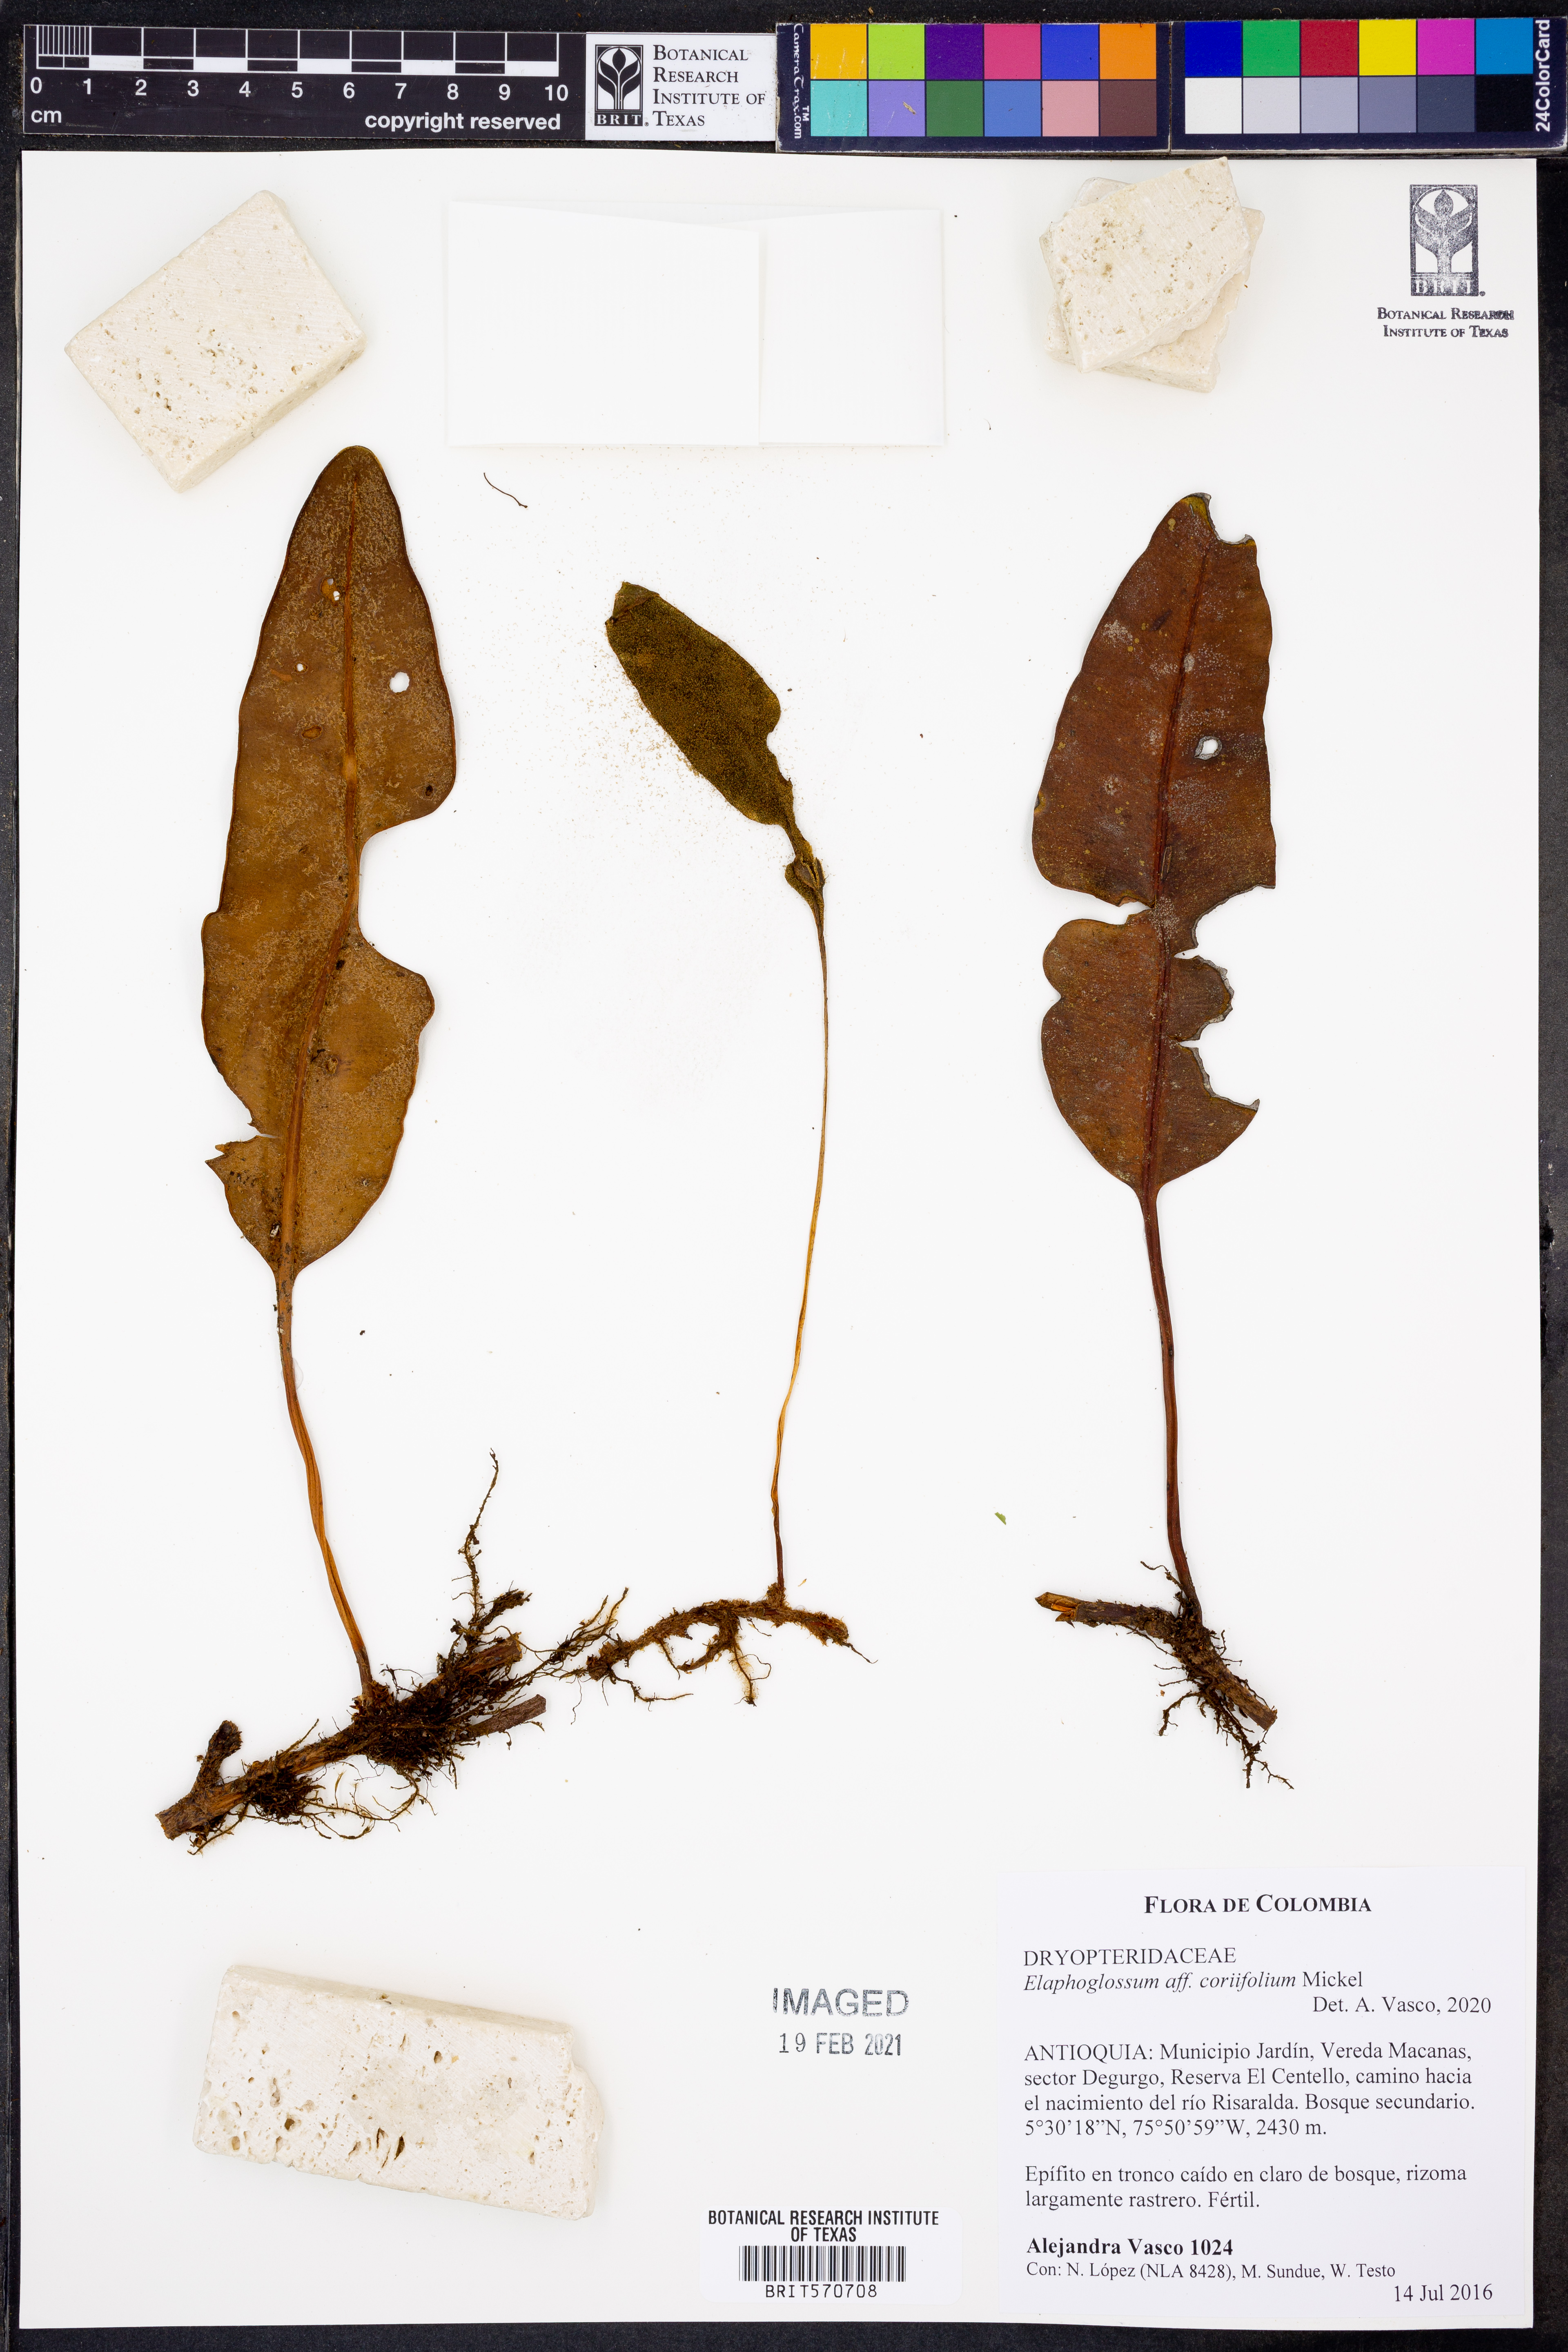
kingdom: Plantae
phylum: Tracheophyta
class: Polypodiopsida
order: Polypodiales
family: Dryopteridaceae
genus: Elaphoglossum
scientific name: Elaphoglossum coriifolium
